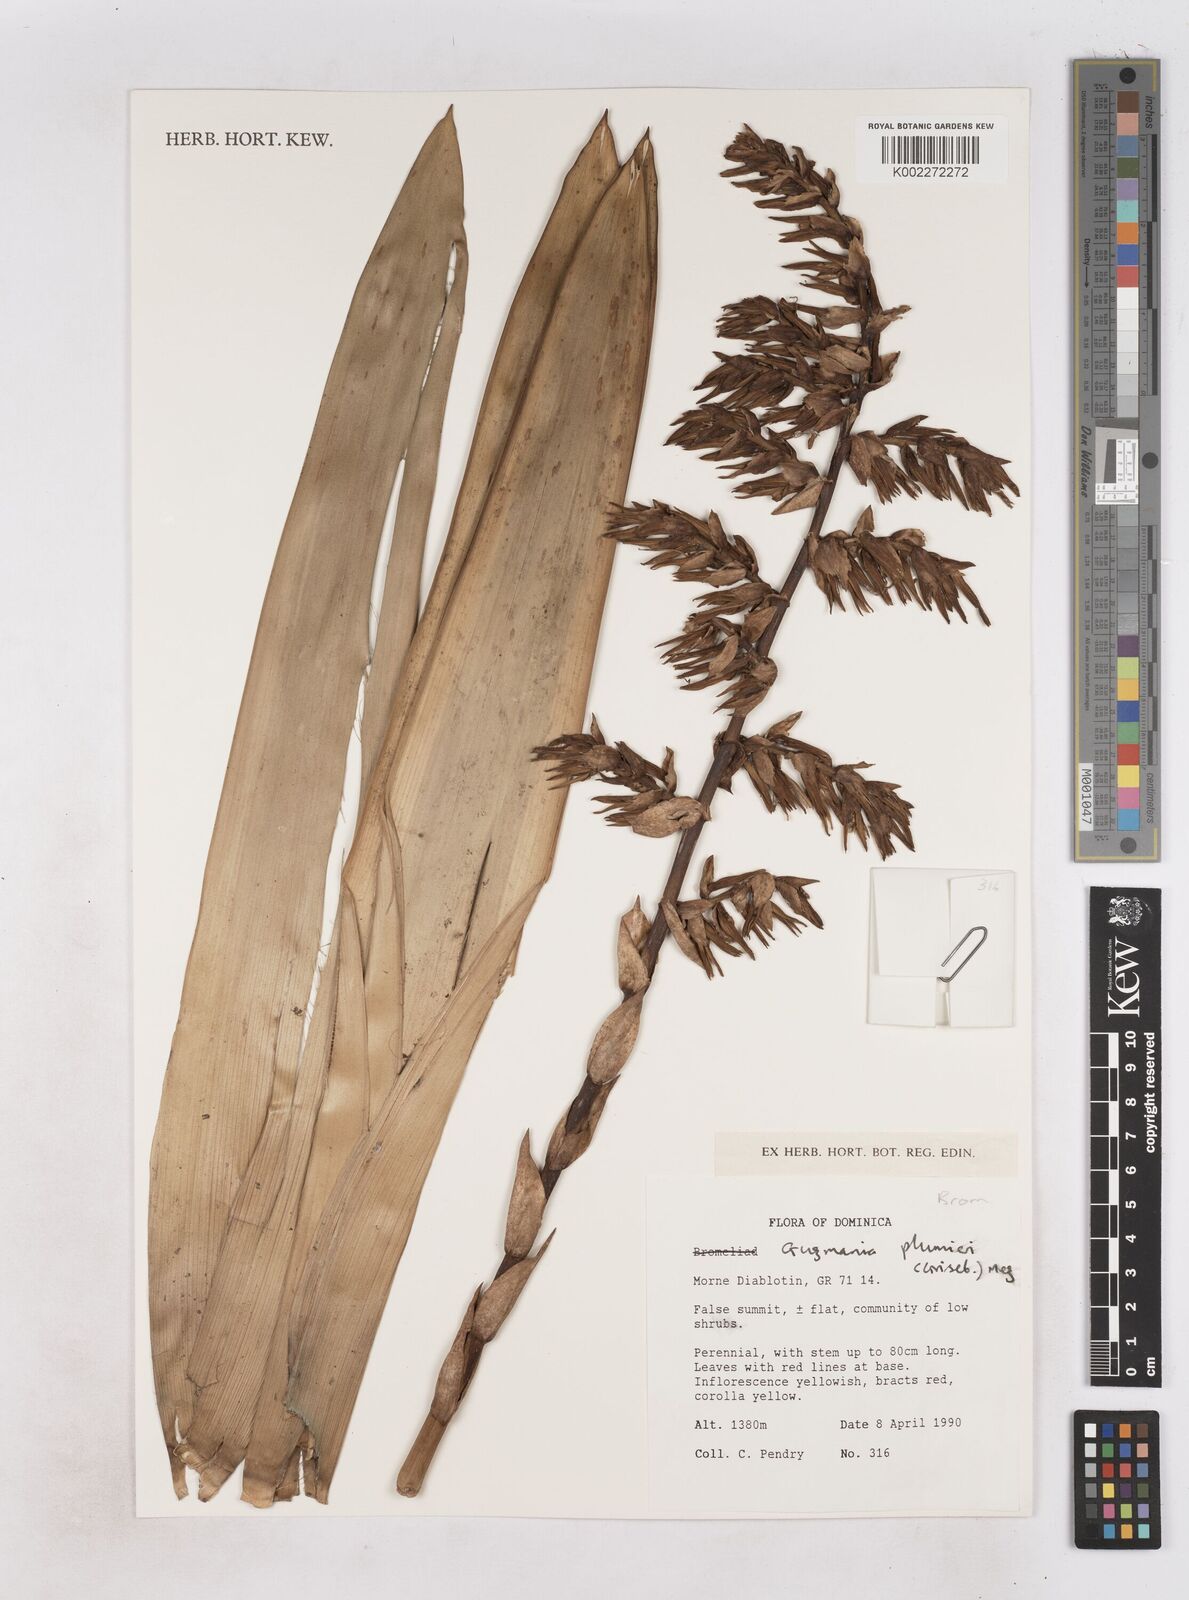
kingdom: Plantae
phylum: Tracheophyta
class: Liliopsida
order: Poales
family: Bromeliaceae
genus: Guzmania
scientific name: Guzmania plumieri
